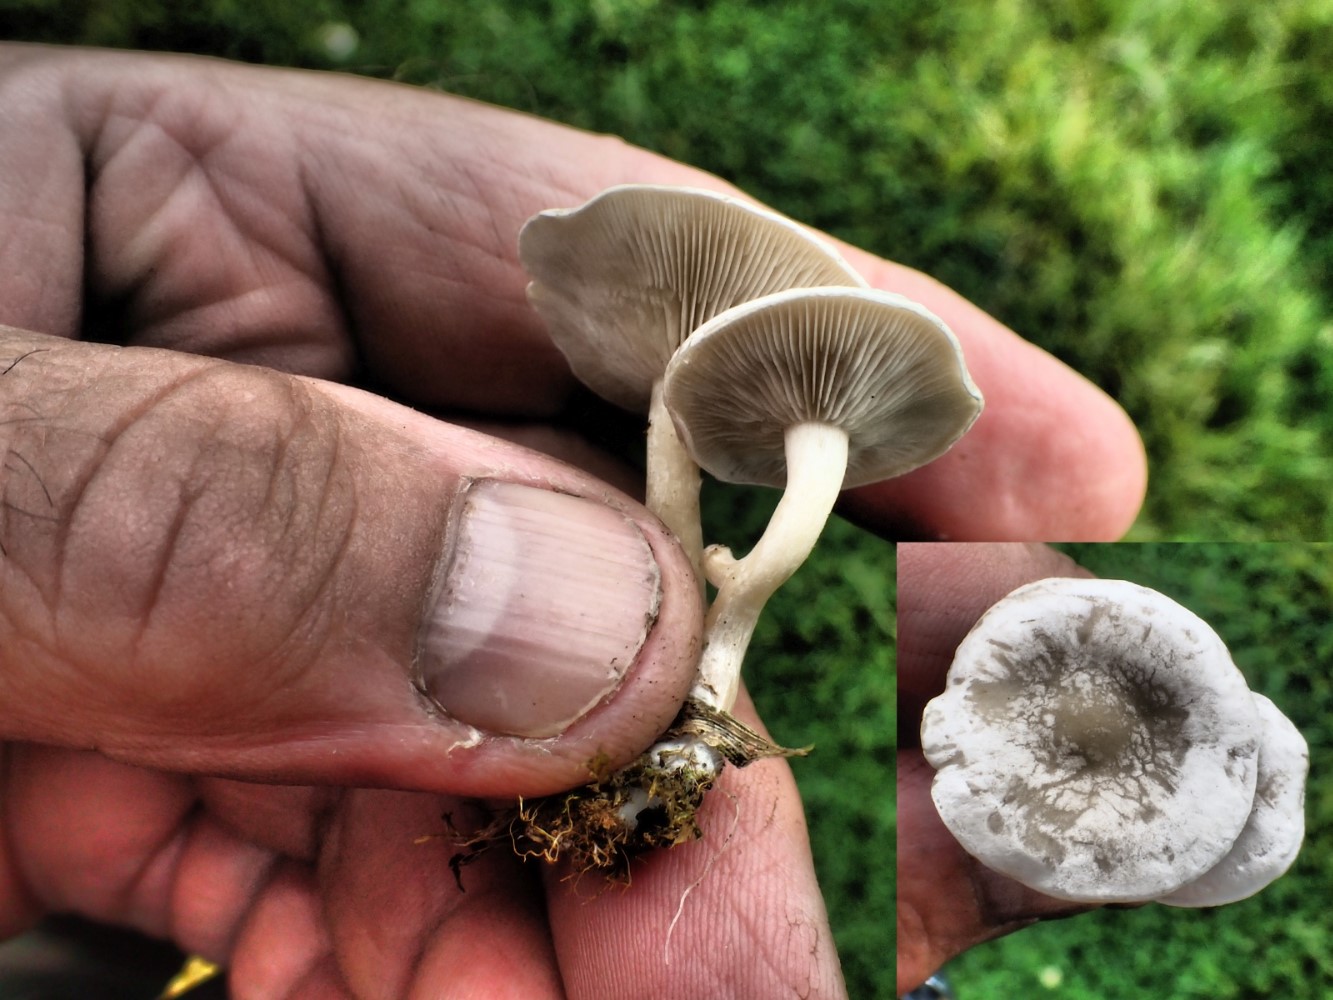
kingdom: Fungi
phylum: Basidiomycota
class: Agaricomycetes
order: Agaricales
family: Tricholomataceae
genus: Clitocybe
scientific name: Clitocybe rivulosa
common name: eng-tragthat
